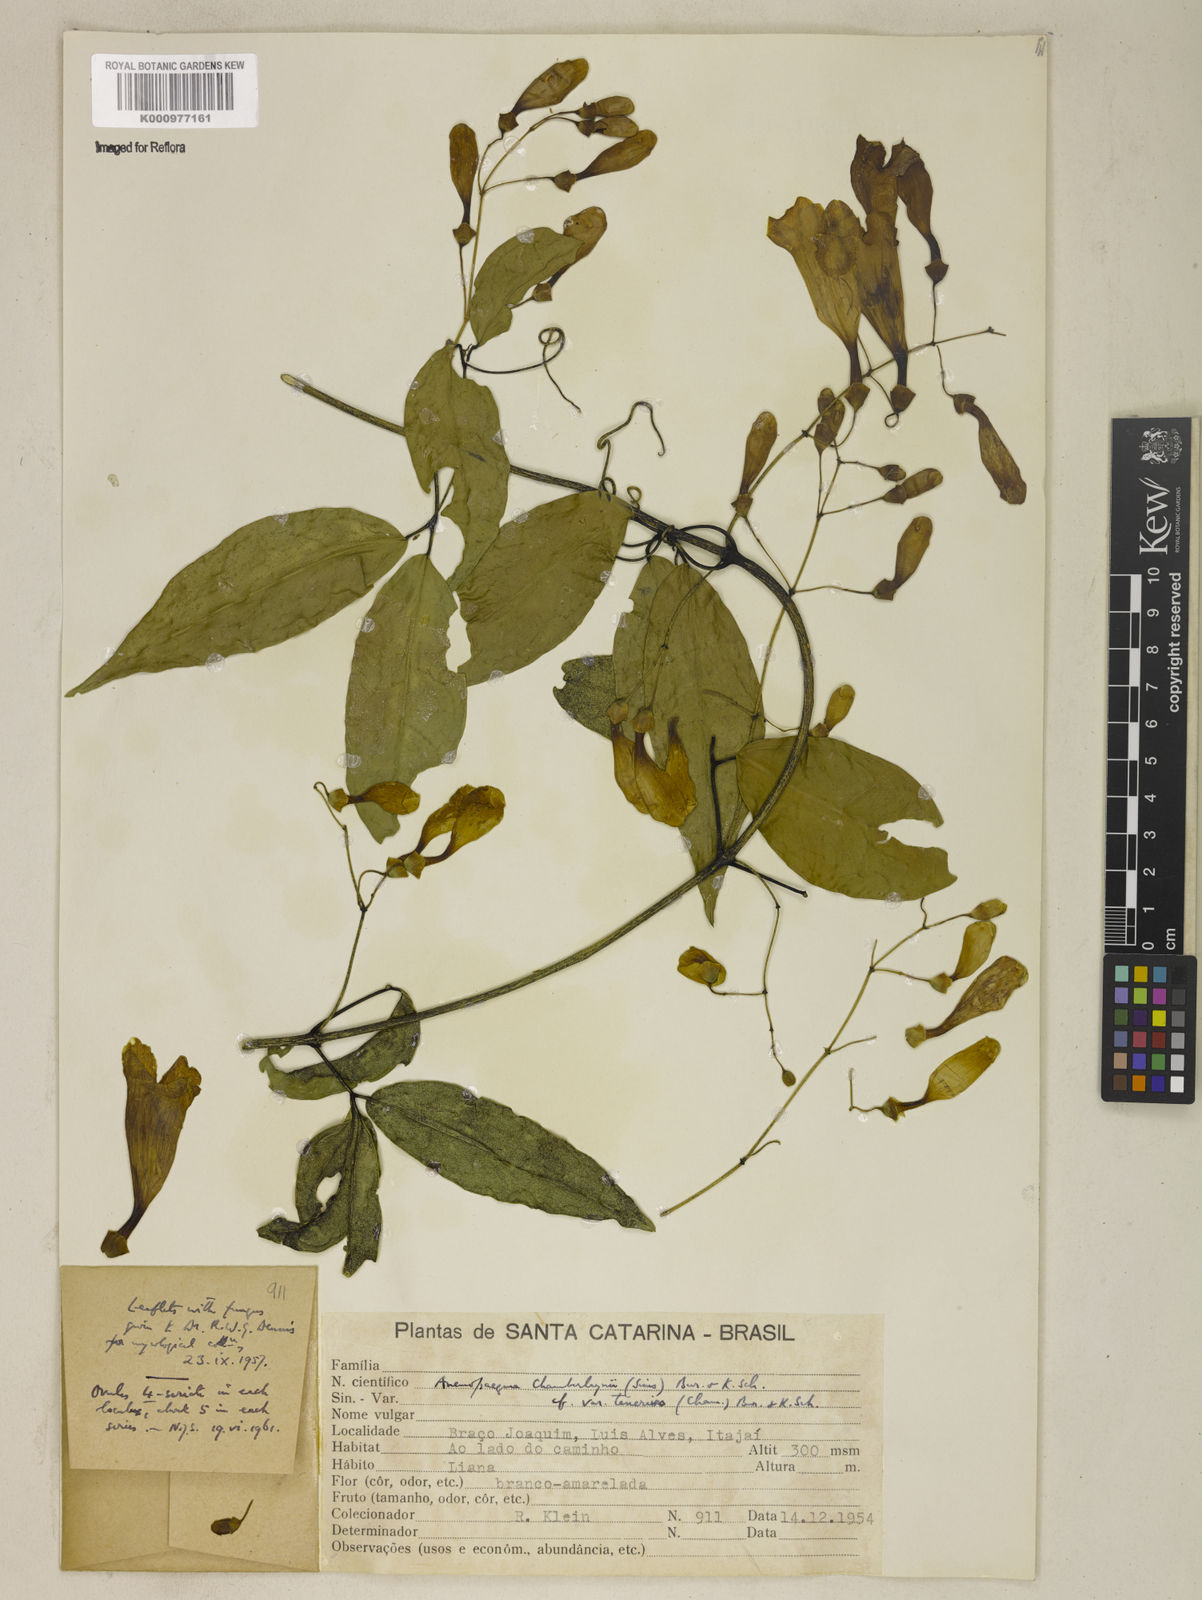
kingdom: Plantae
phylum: Tracheophyta
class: Magnoliopsida
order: Lamiales
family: Bignoniaceae
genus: Anemopaegma
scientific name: Anemopaegma chamberlaynii
